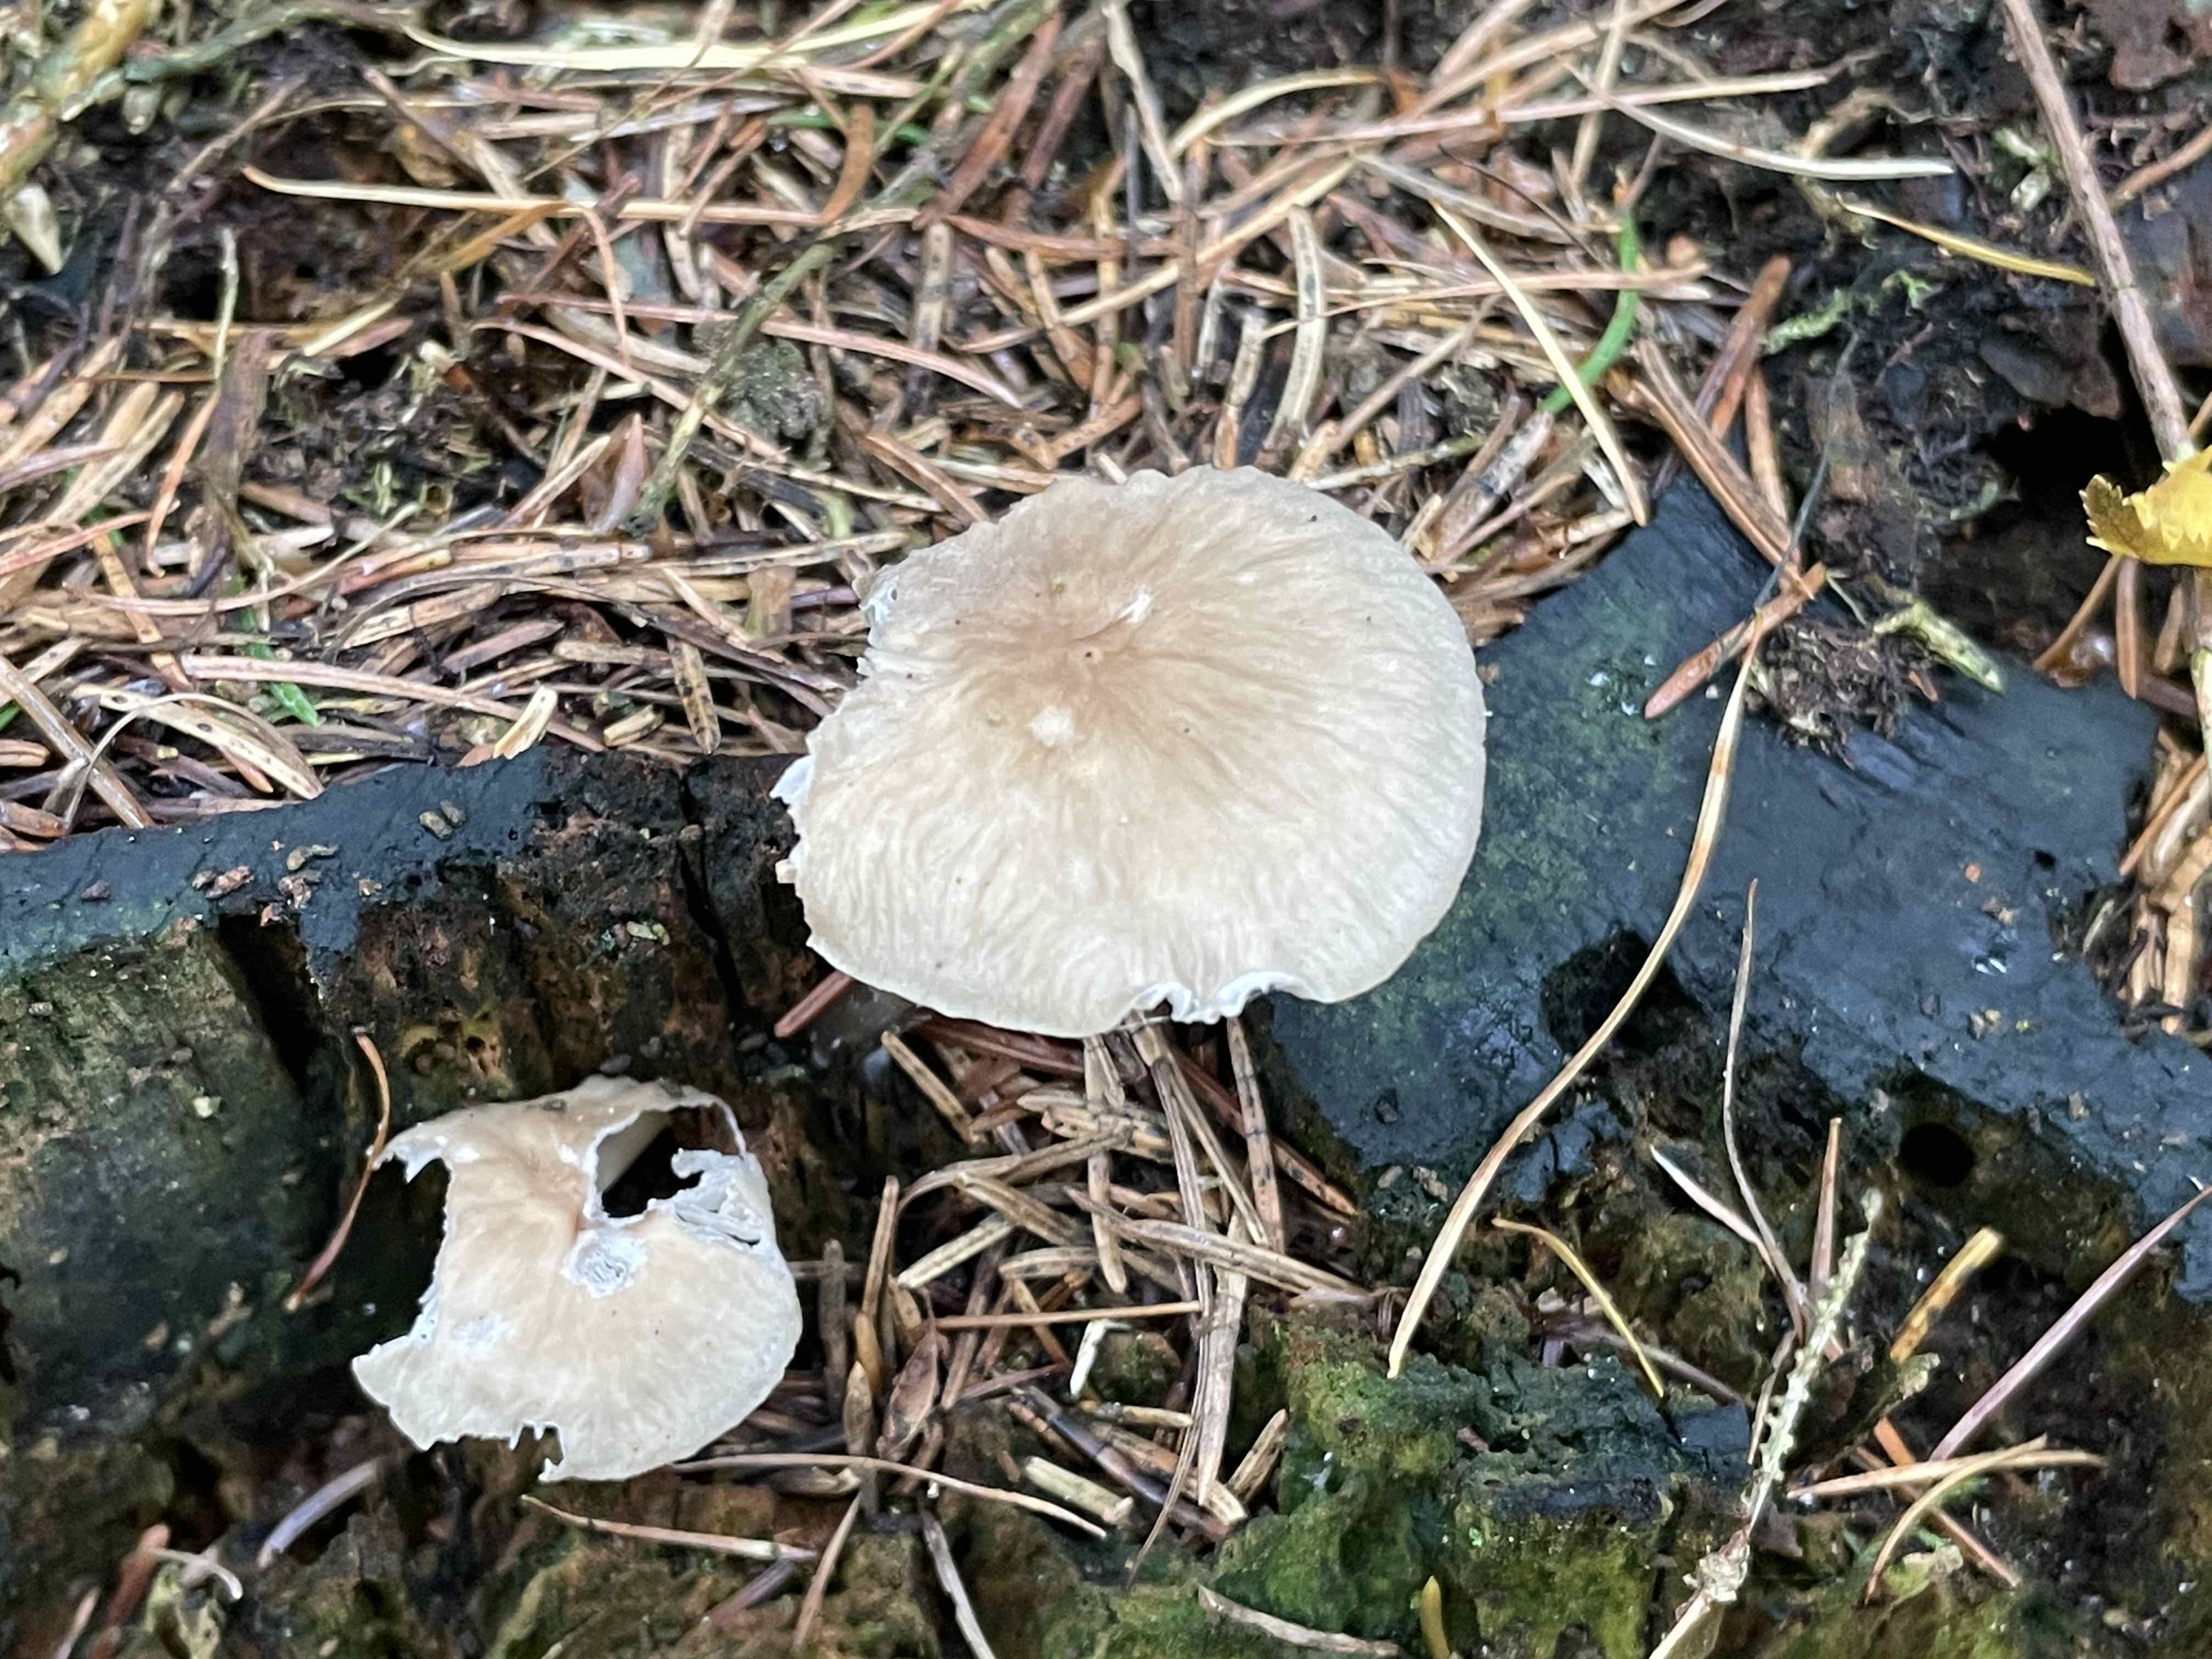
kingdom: Fungi
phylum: Basidiomycota
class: Agaricomycetes
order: Agaricales
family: Mycenaceae
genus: Mycena
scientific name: Mycena galericulata
